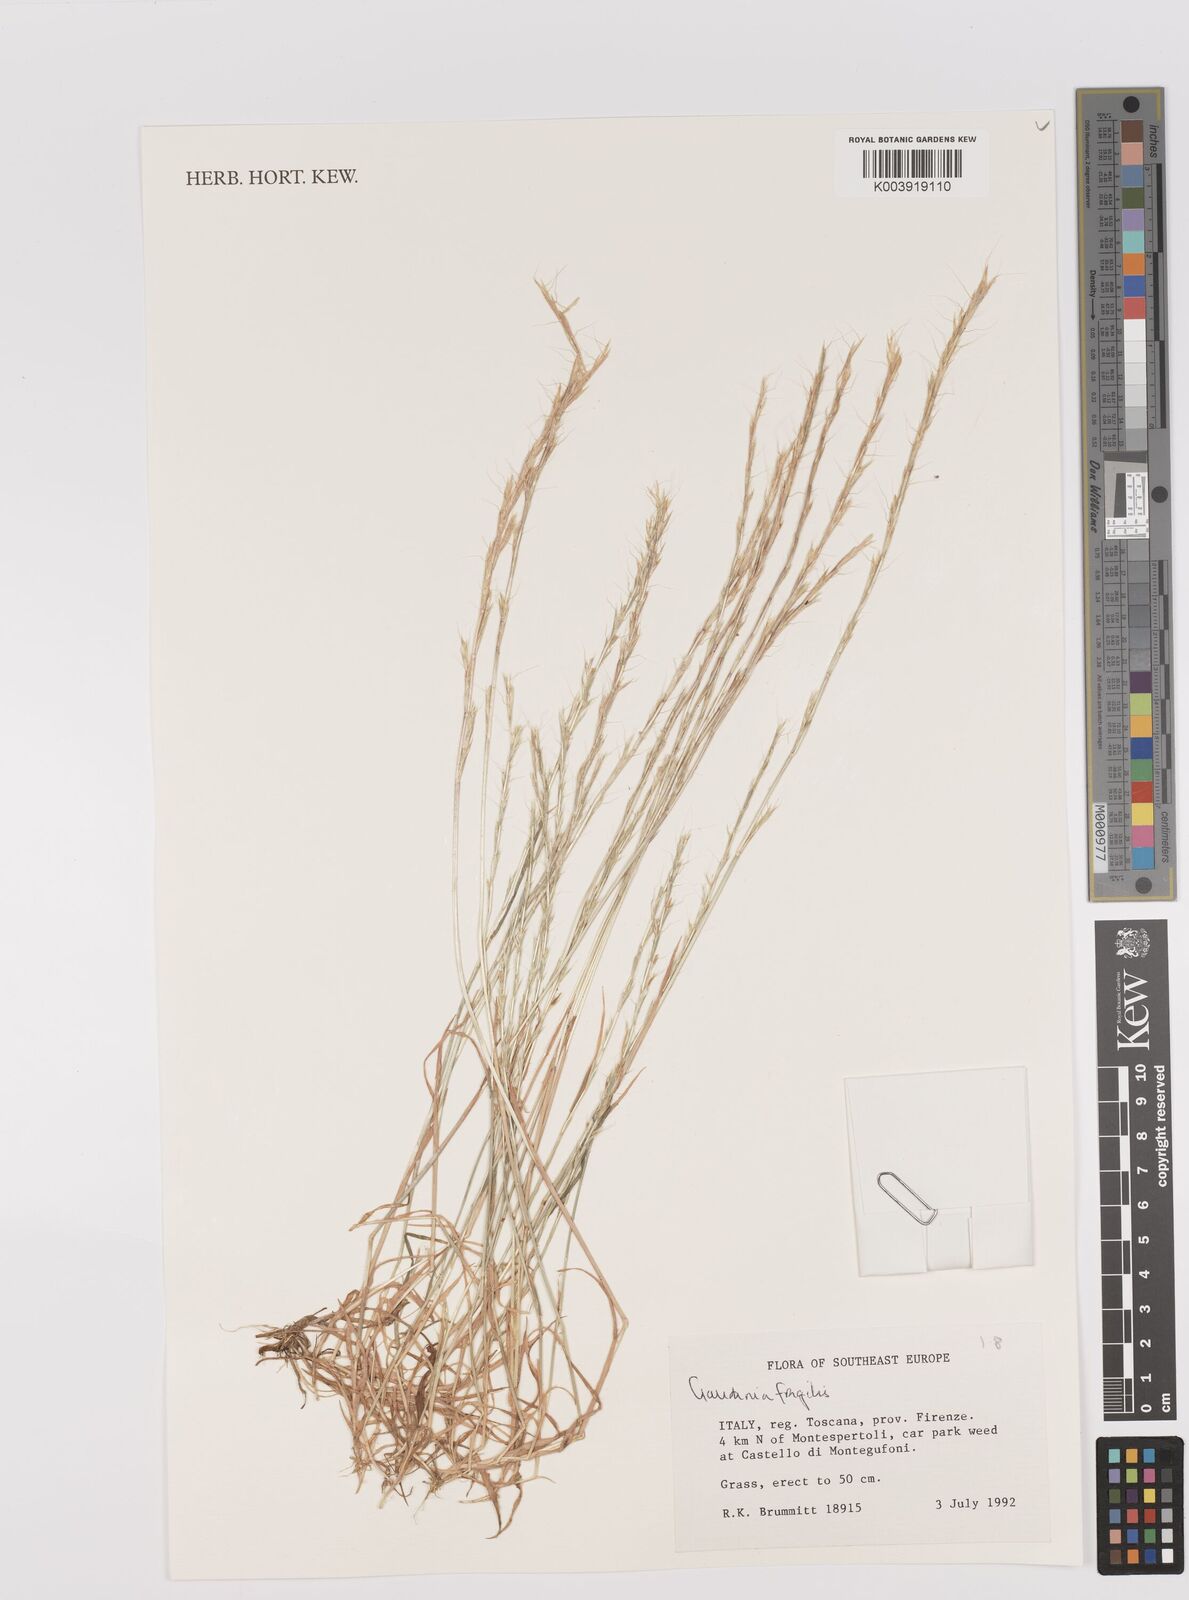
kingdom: Plantae
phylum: Tracheophyta
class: Liliopsida
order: Poales
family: Poaceae
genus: Gaudinia
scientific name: Gaudinia fragilis
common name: French oat-grass
